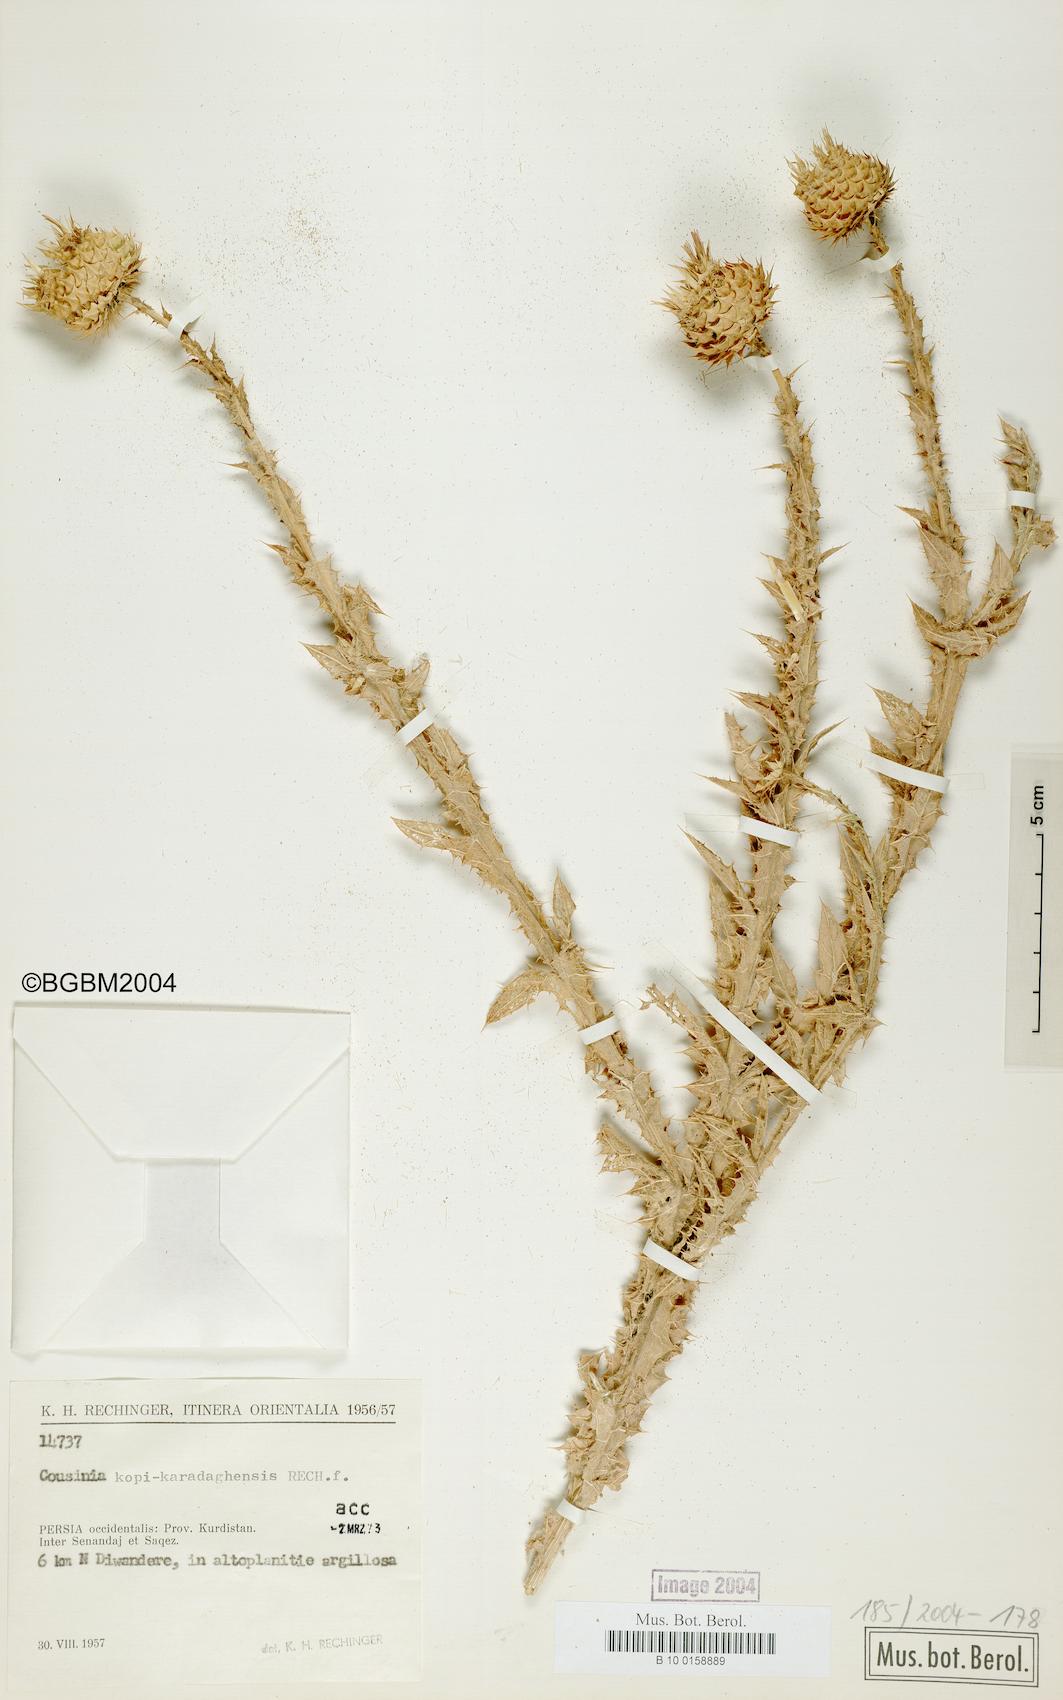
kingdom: Plantae
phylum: Tracheophyta
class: Magnoliopsida
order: Asterales
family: Asteraceae
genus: Cousinia
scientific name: Cousinia kopi-karadaghensis
